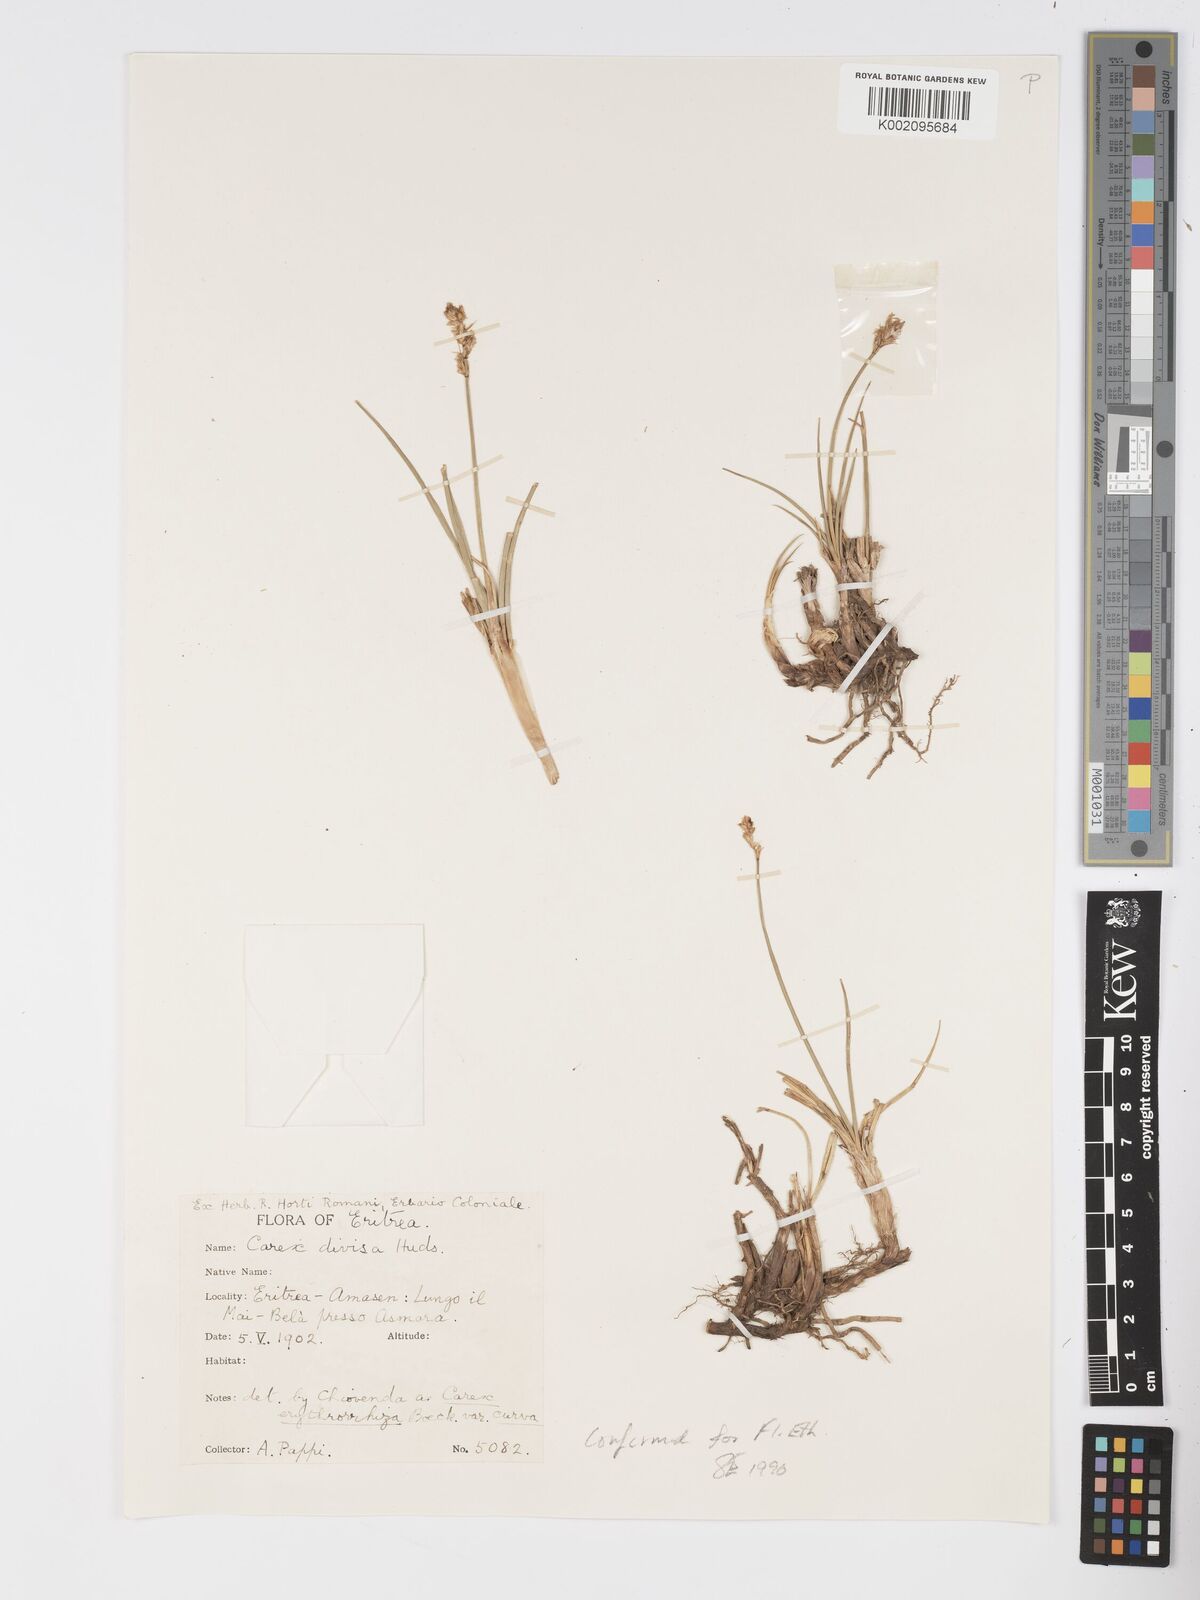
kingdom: Plantae
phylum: Tracheophyta
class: Liliopsida
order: Poales
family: Cyperaceae
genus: Carex
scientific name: Carex divisa
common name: Divided sedge
